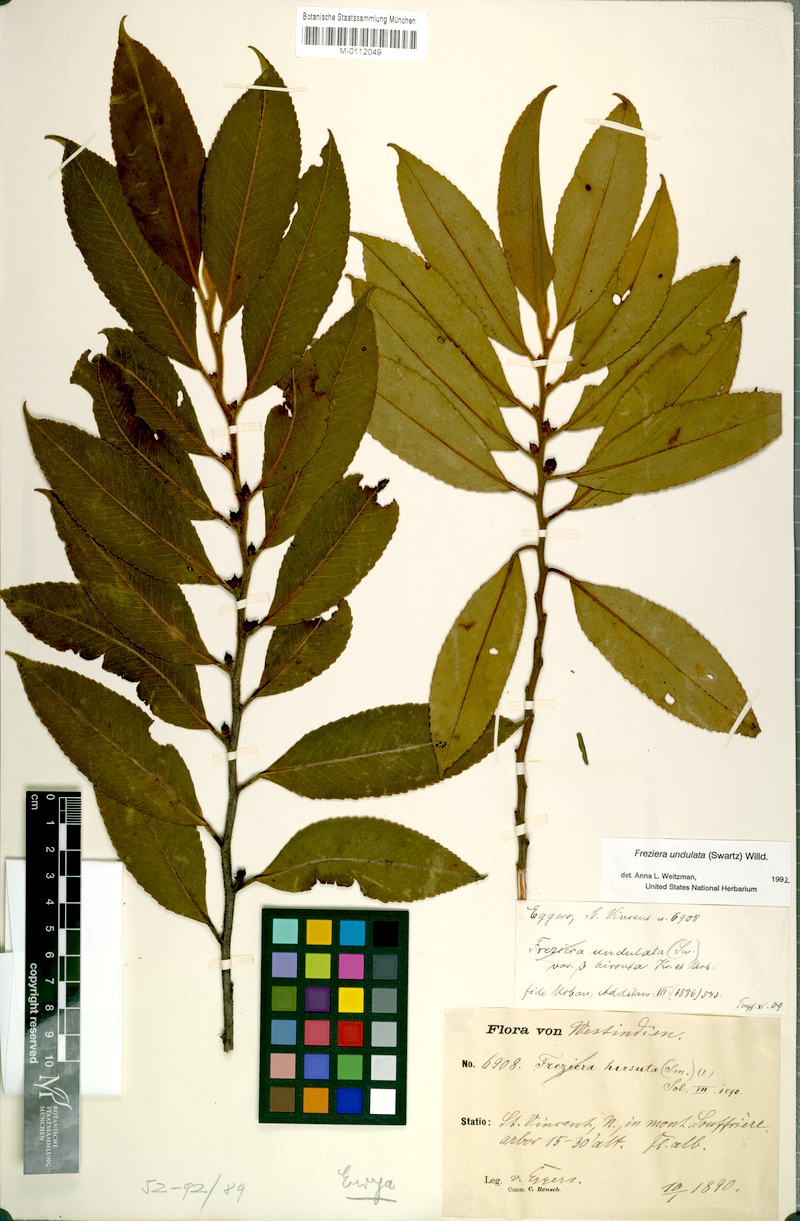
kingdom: Plantae
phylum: Tracheophyta
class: Magnoliopsida
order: Ericales
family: Pentaphylacaceae
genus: Freziera
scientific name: Freziera undulata
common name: Mountain mahogany
